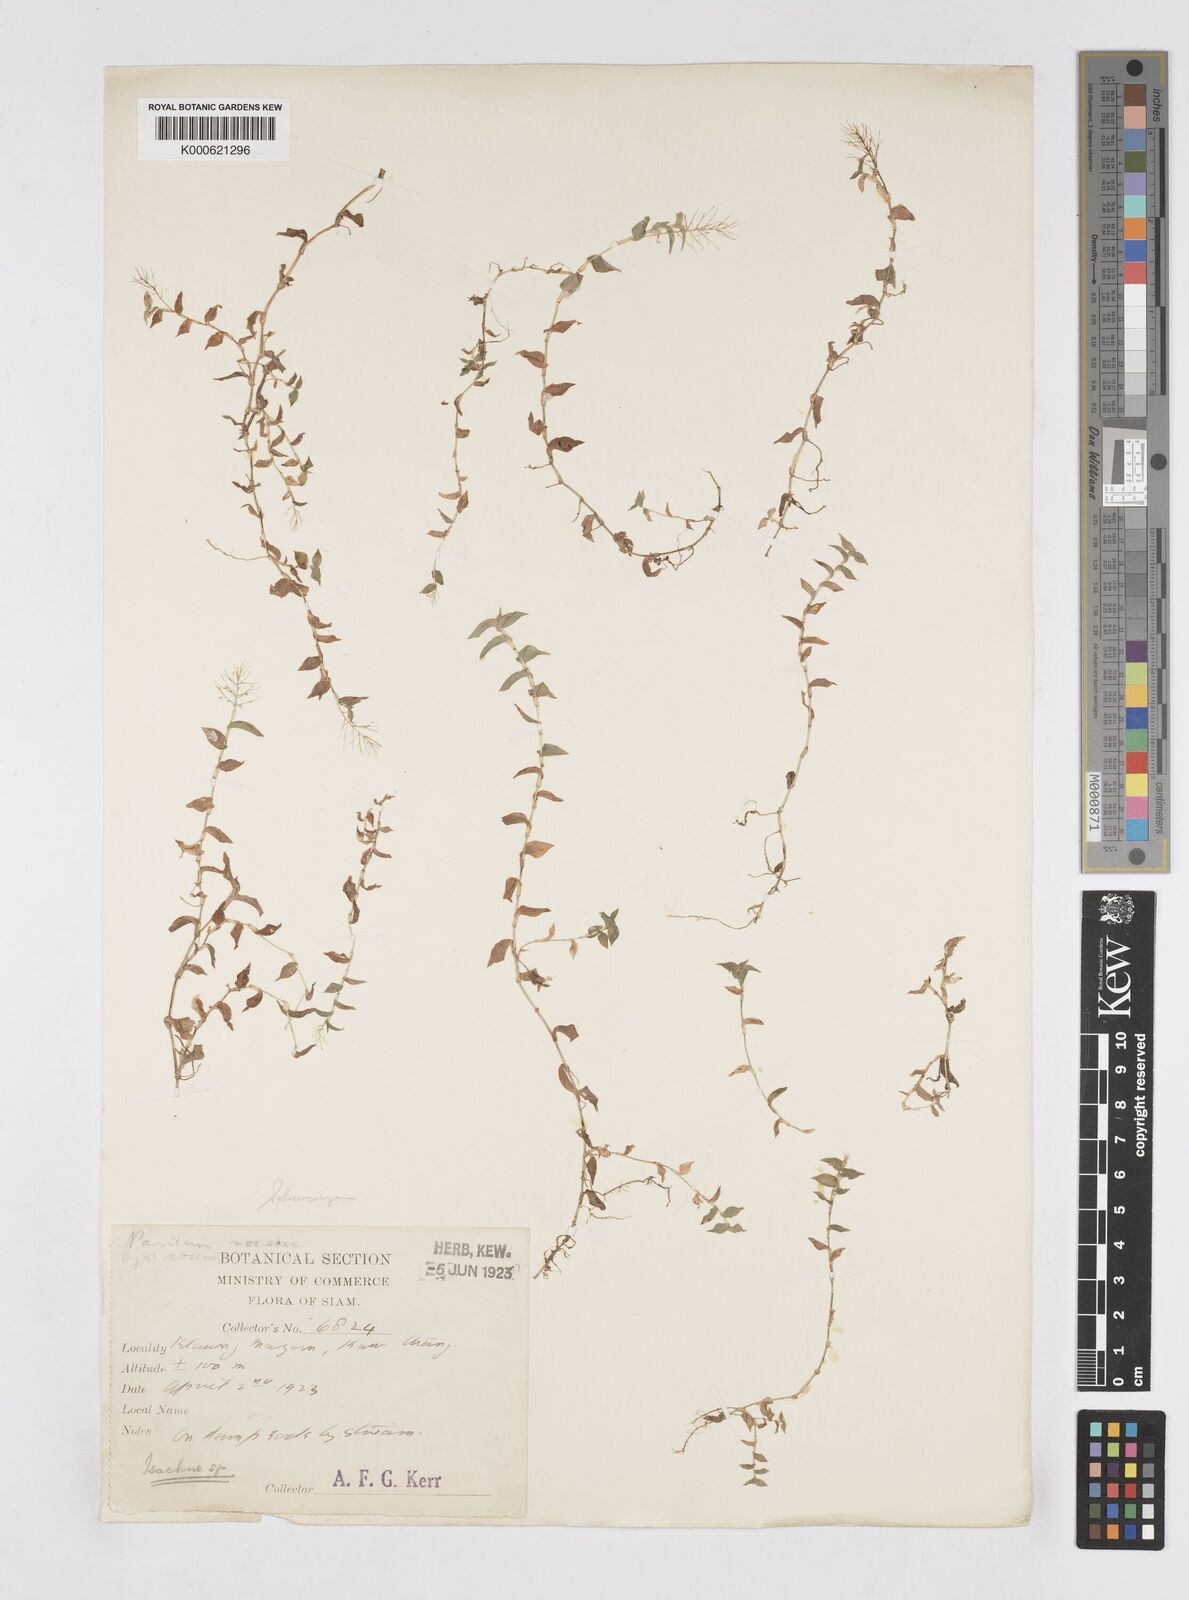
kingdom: Plantae
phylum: Tracheophyta
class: Liliopsida
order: Poales
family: Poaceae
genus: Sphaerocaryum
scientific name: Sphaerocaryum malaccense
